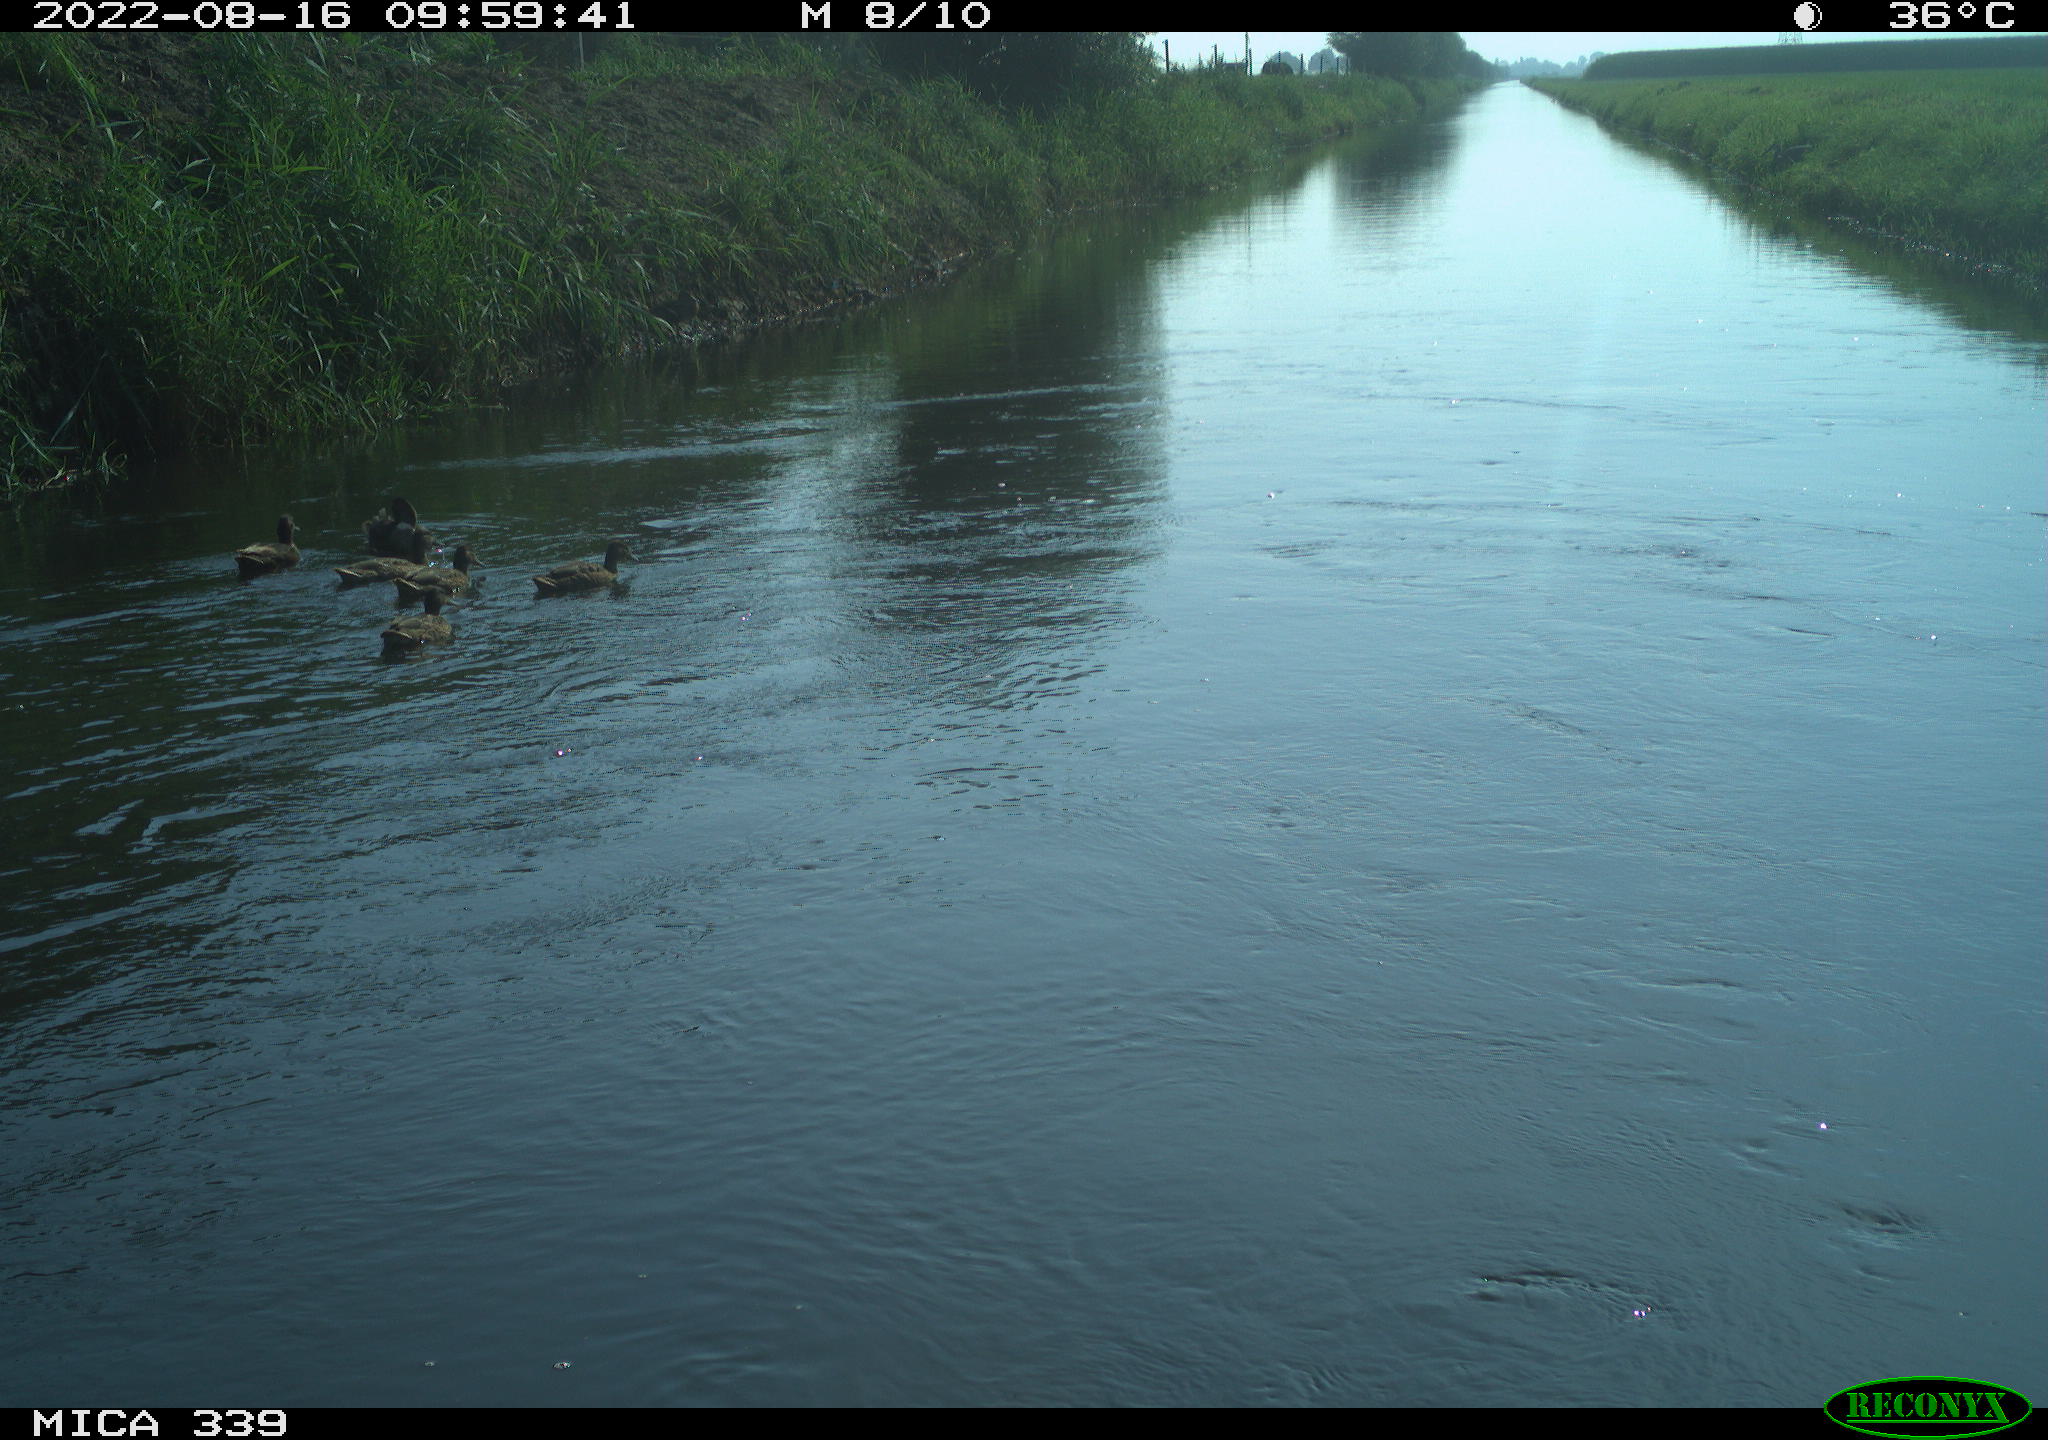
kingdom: Animalia
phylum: Chordata
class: Aves
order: Anseriformes
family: Anatidae
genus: Anas
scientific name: Anas platyrhynchos
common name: Mallard
